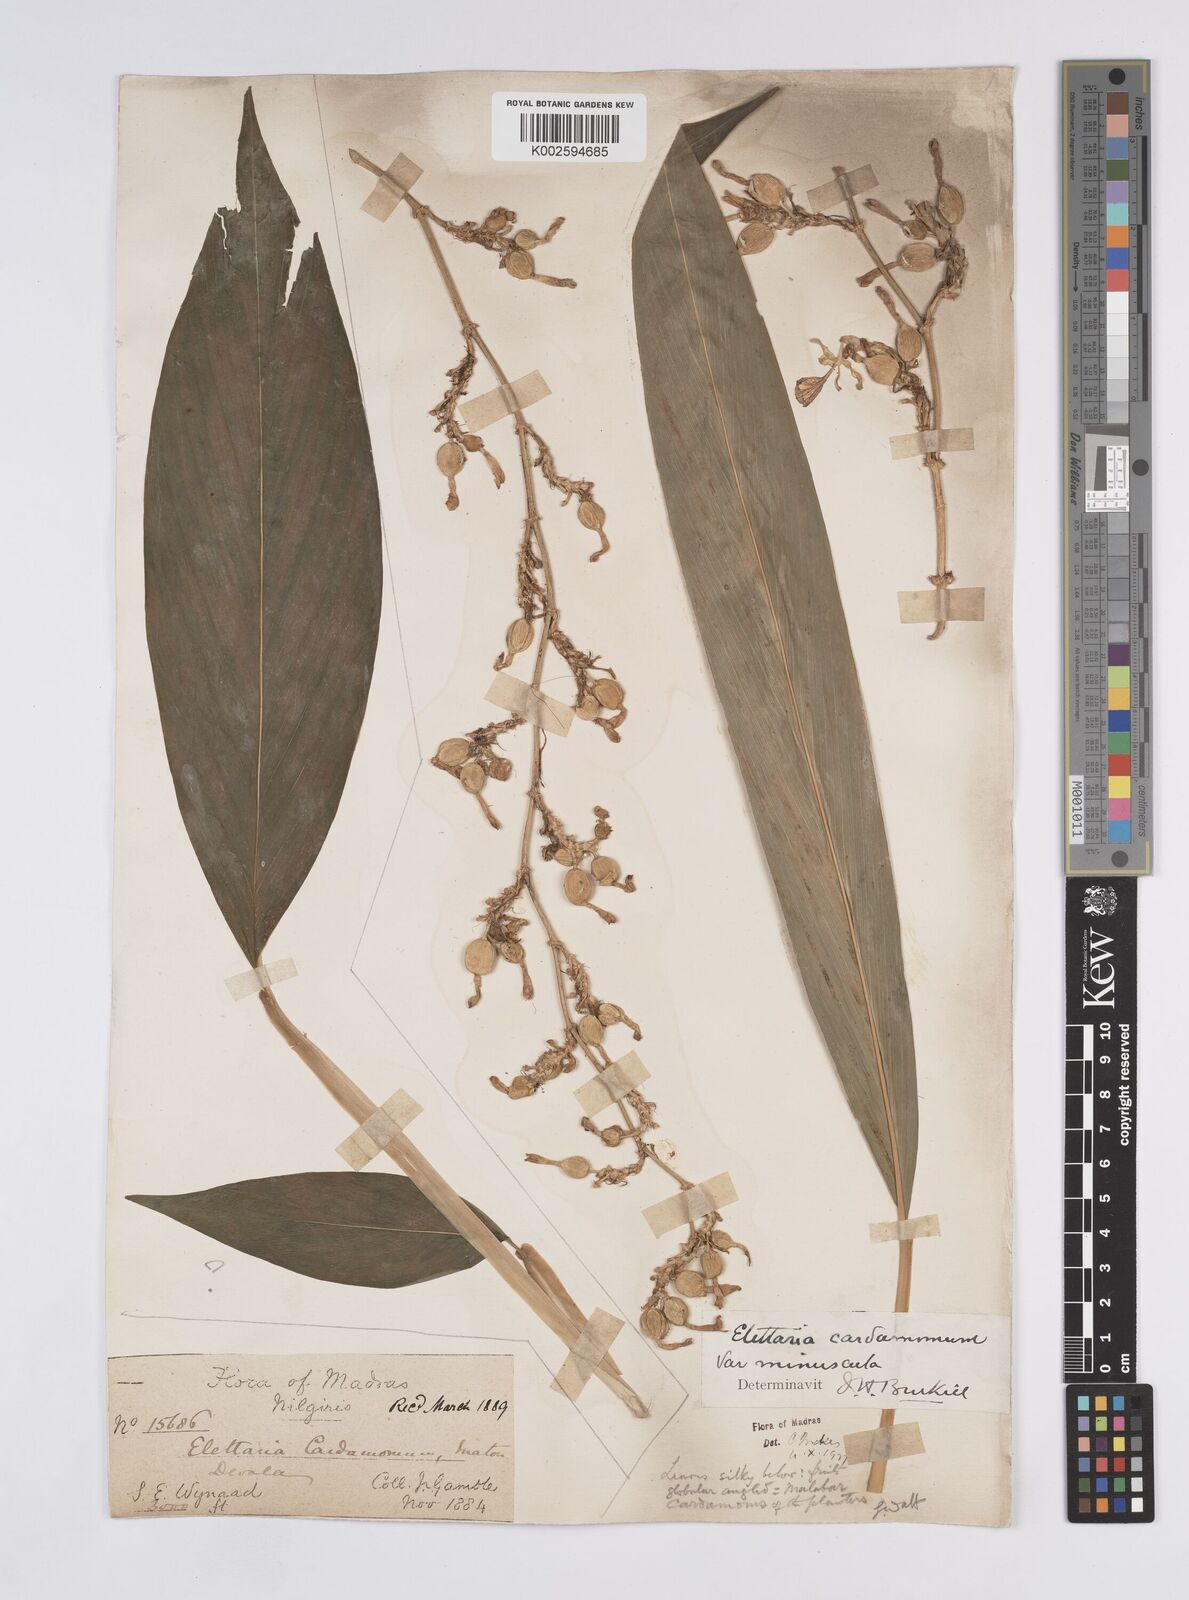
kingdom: Plantae
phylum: Tracheophyta
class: Liliopsida
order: Zingiberales
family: Zingiberaceae
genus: Elettaria
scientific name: Elettaria cardamomum
